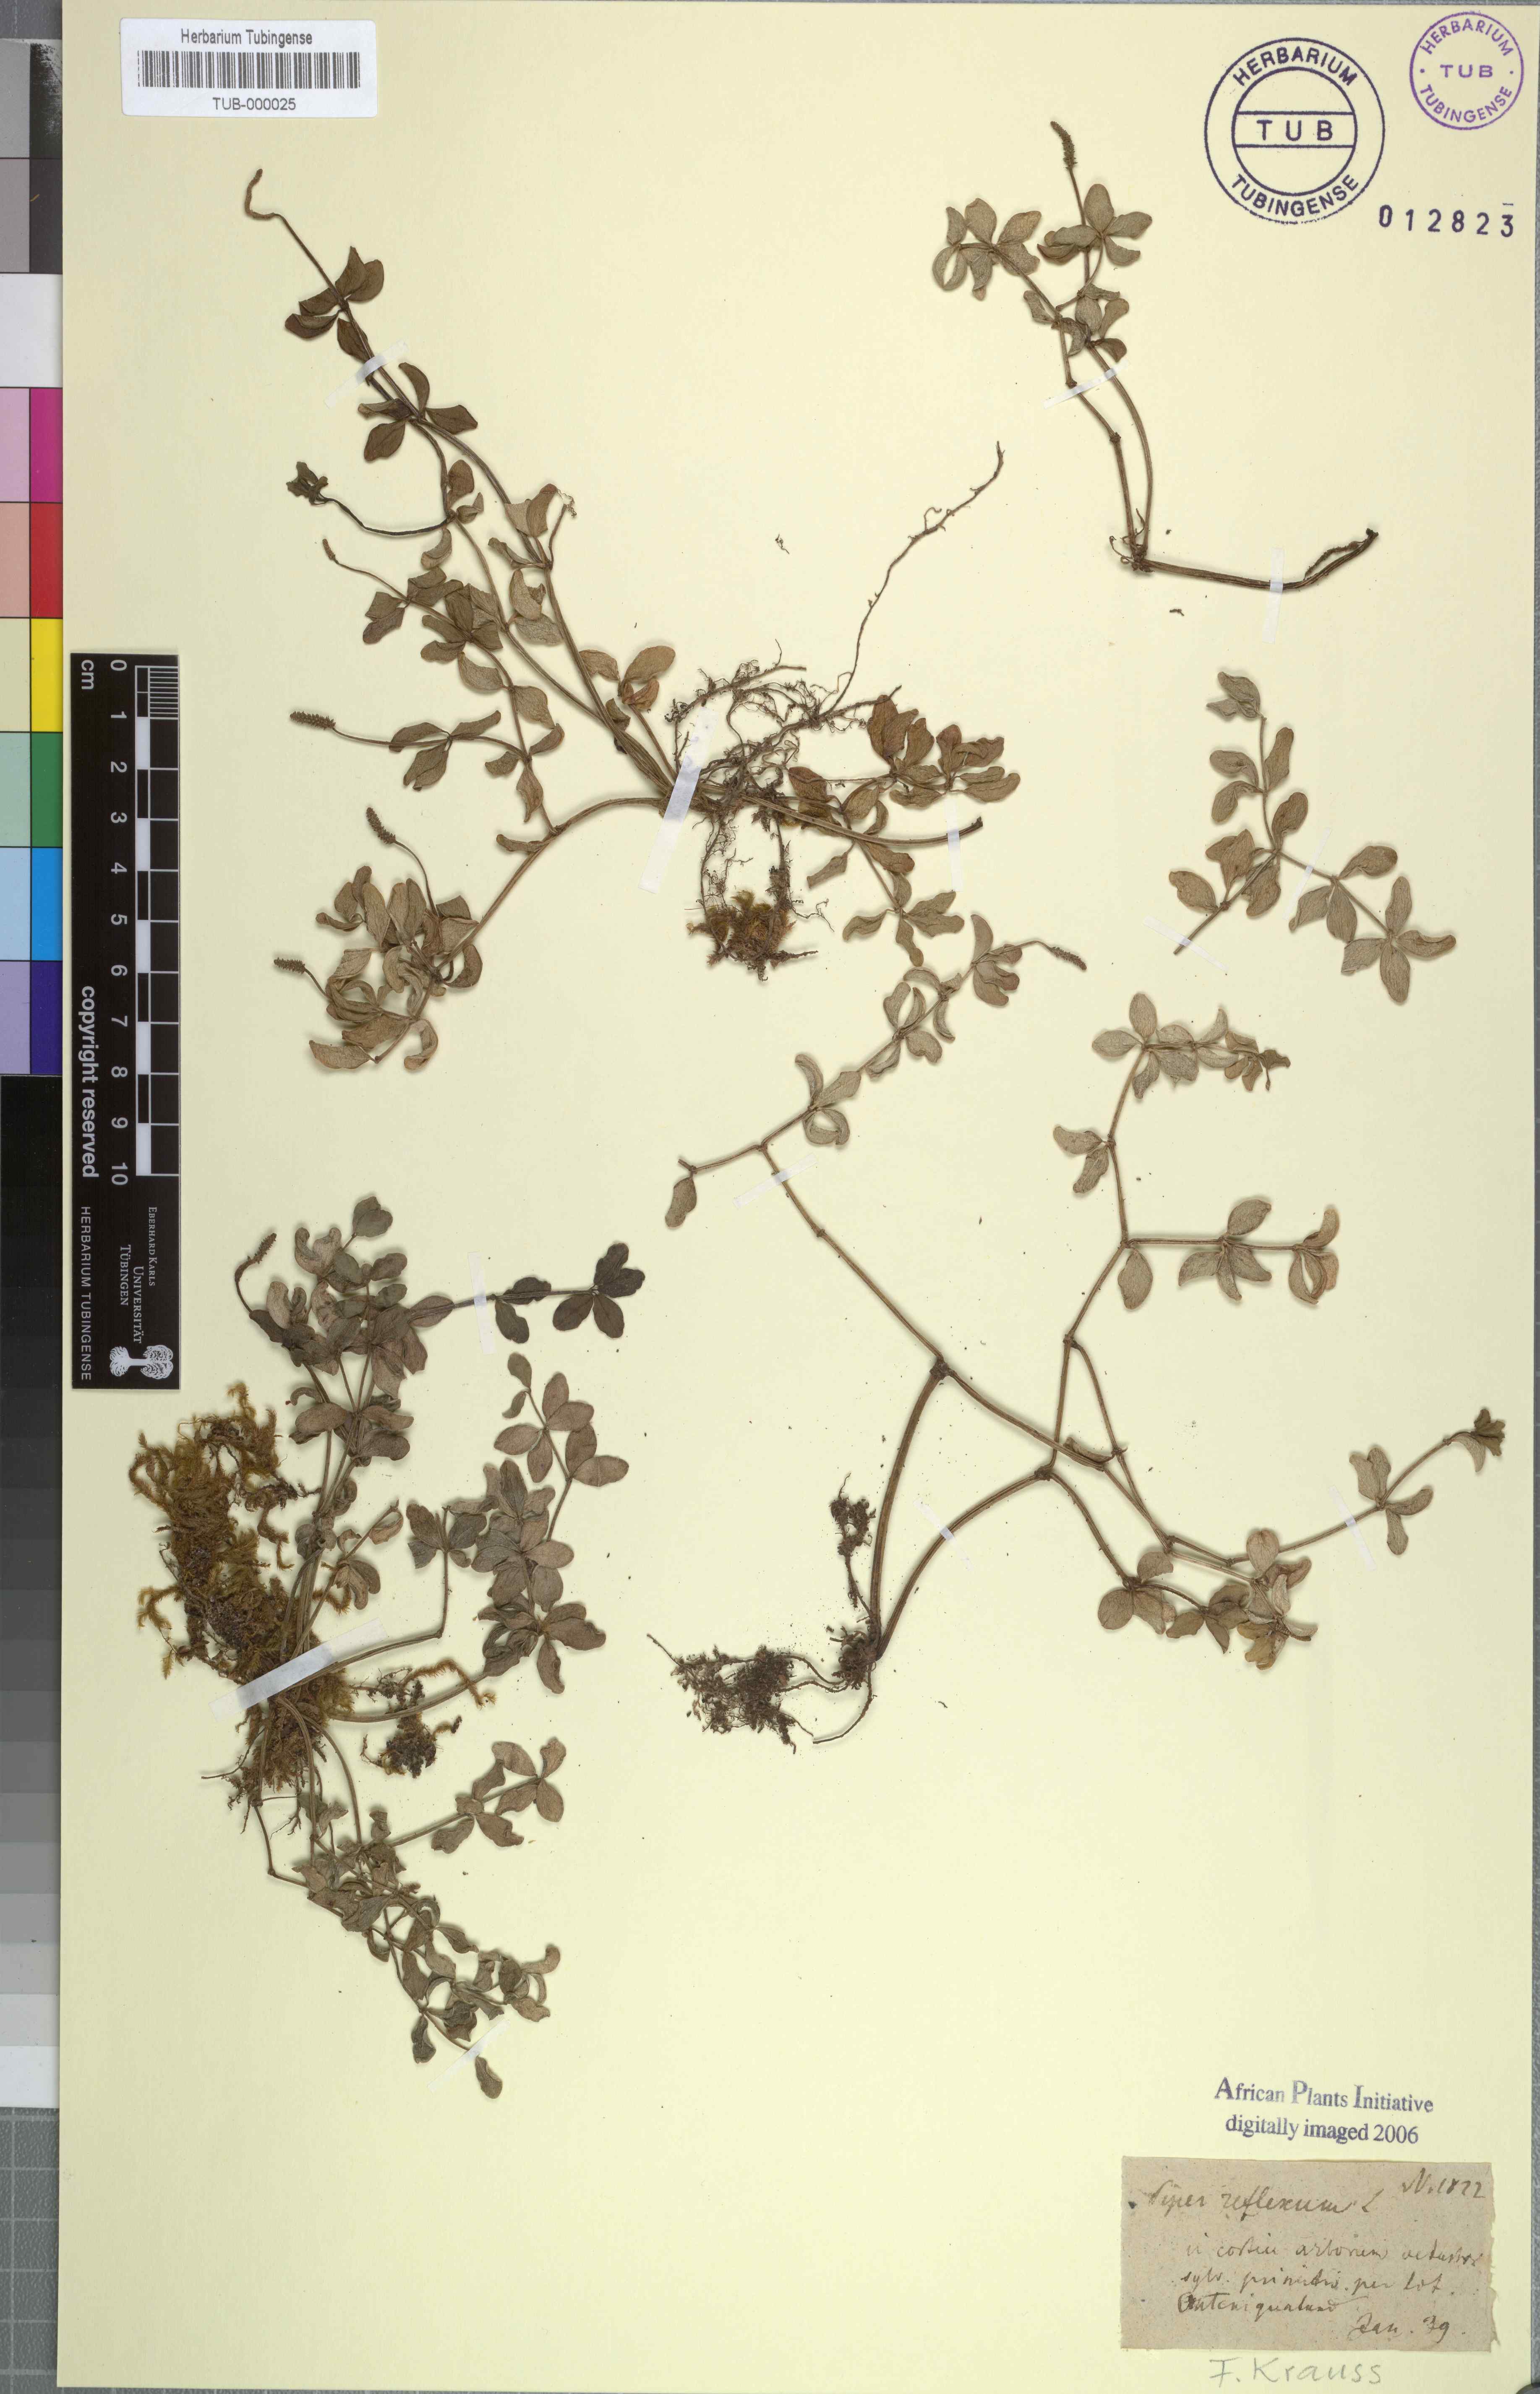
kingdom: Plantae
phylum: Tracheophyta
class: Magnoliopsida
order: Piperales
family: Piperaceae
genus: Peperomia
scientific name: Peperomia tetraphylla
